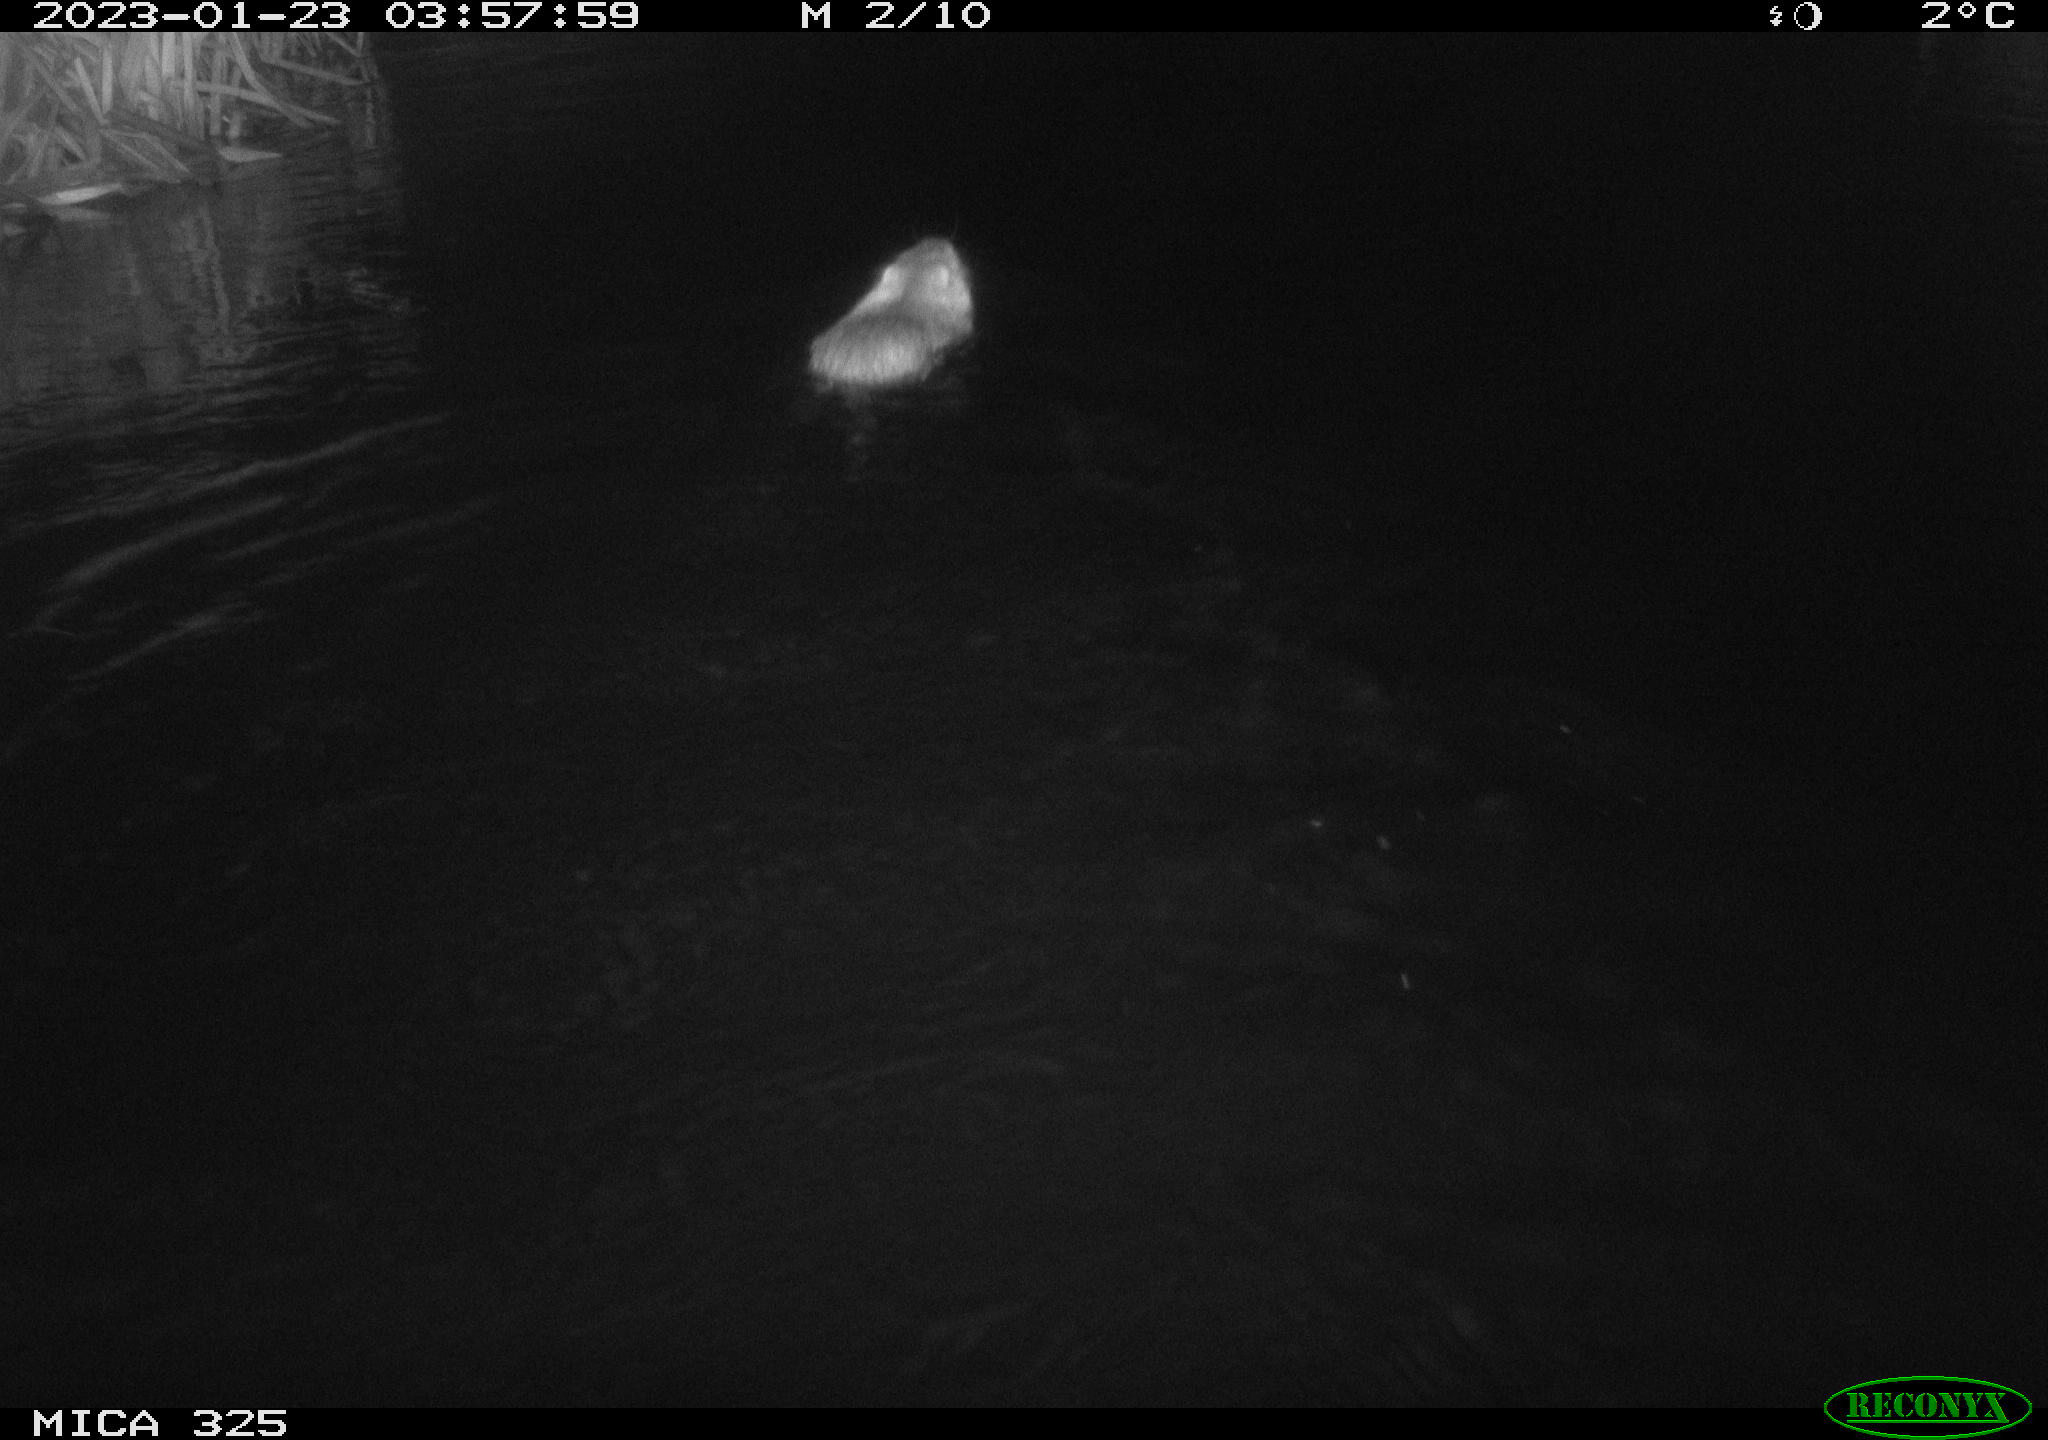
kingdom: Animalia
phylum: Chordata
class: Mammalia
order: Rodentia
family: Cricetidae
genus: Ondatra
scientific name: Ondatra zibethicus
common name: Muskrat
